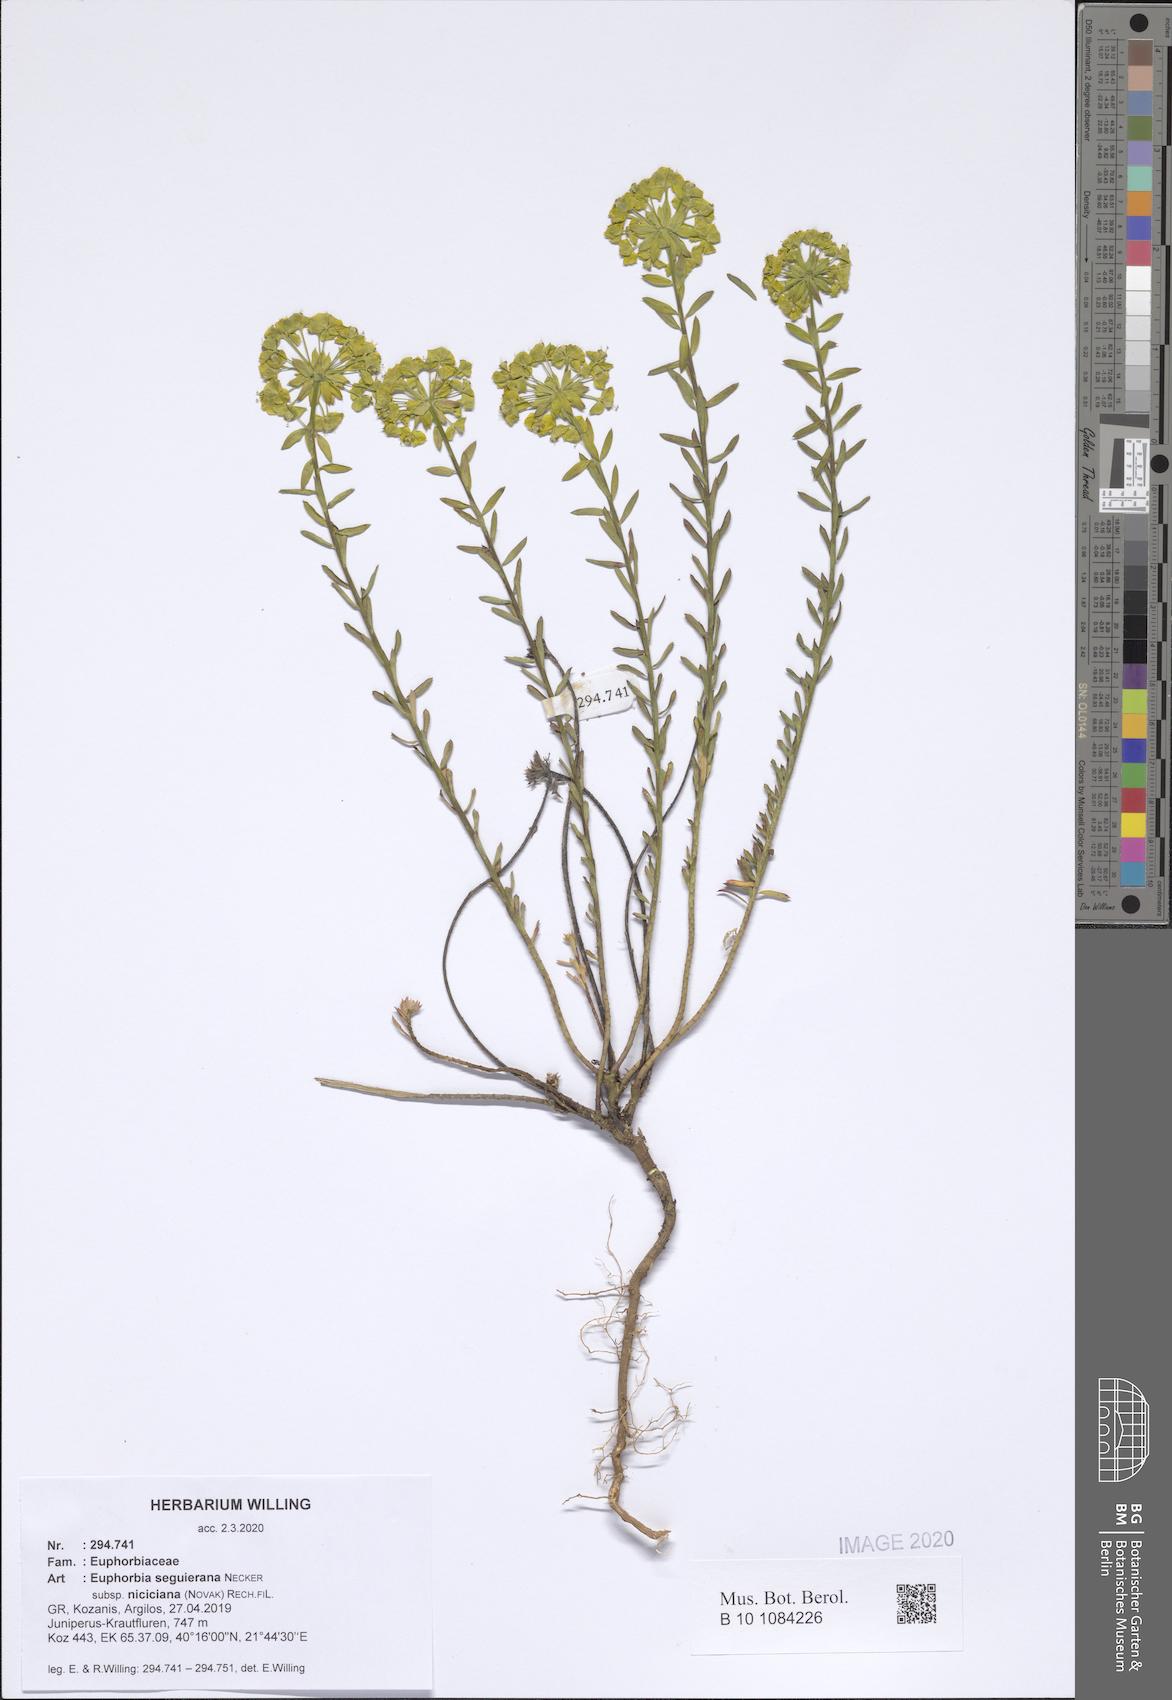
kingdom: Plantae
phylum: Tracheophyta
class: Magnoliopsida
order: Malpighiales
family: Euphorbiaceae
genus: Euphorbia
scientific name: Euphorbia seguieriana
